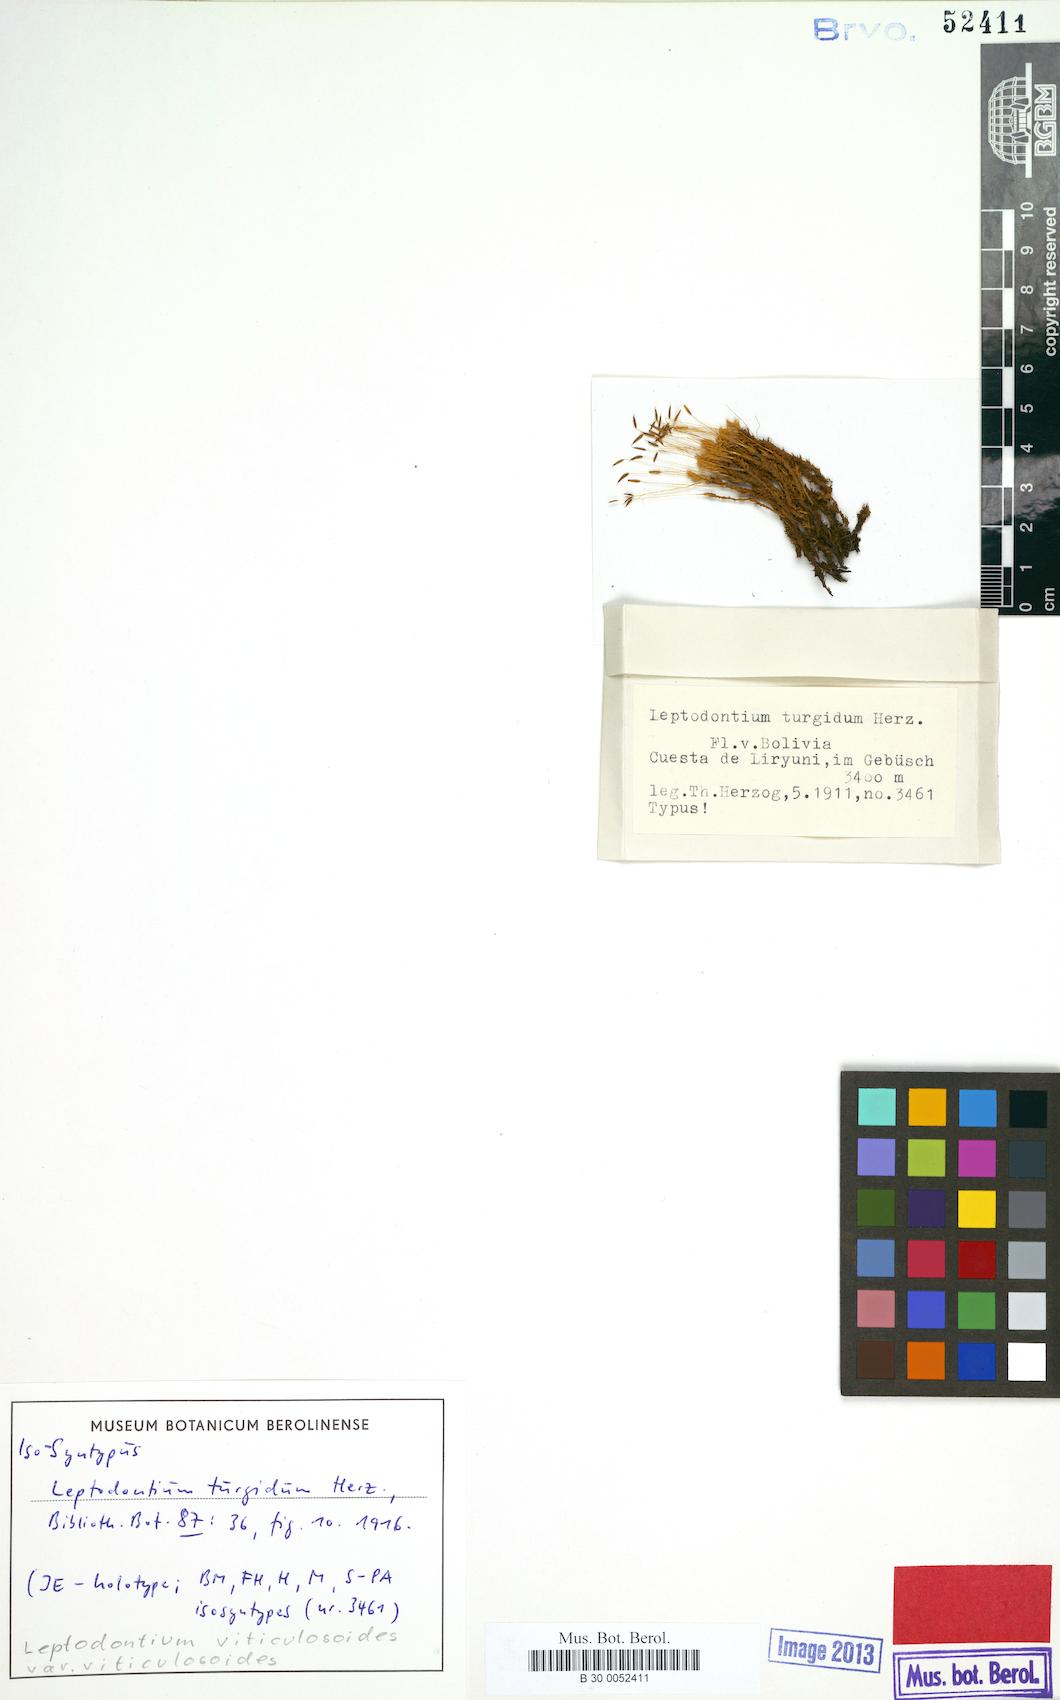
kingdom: Plantae
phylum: Bryophyta
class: Bryopsida
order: Pottiales
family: Pottiaceae
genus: Leptodontium
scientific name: Leptodontium viticulosoides
